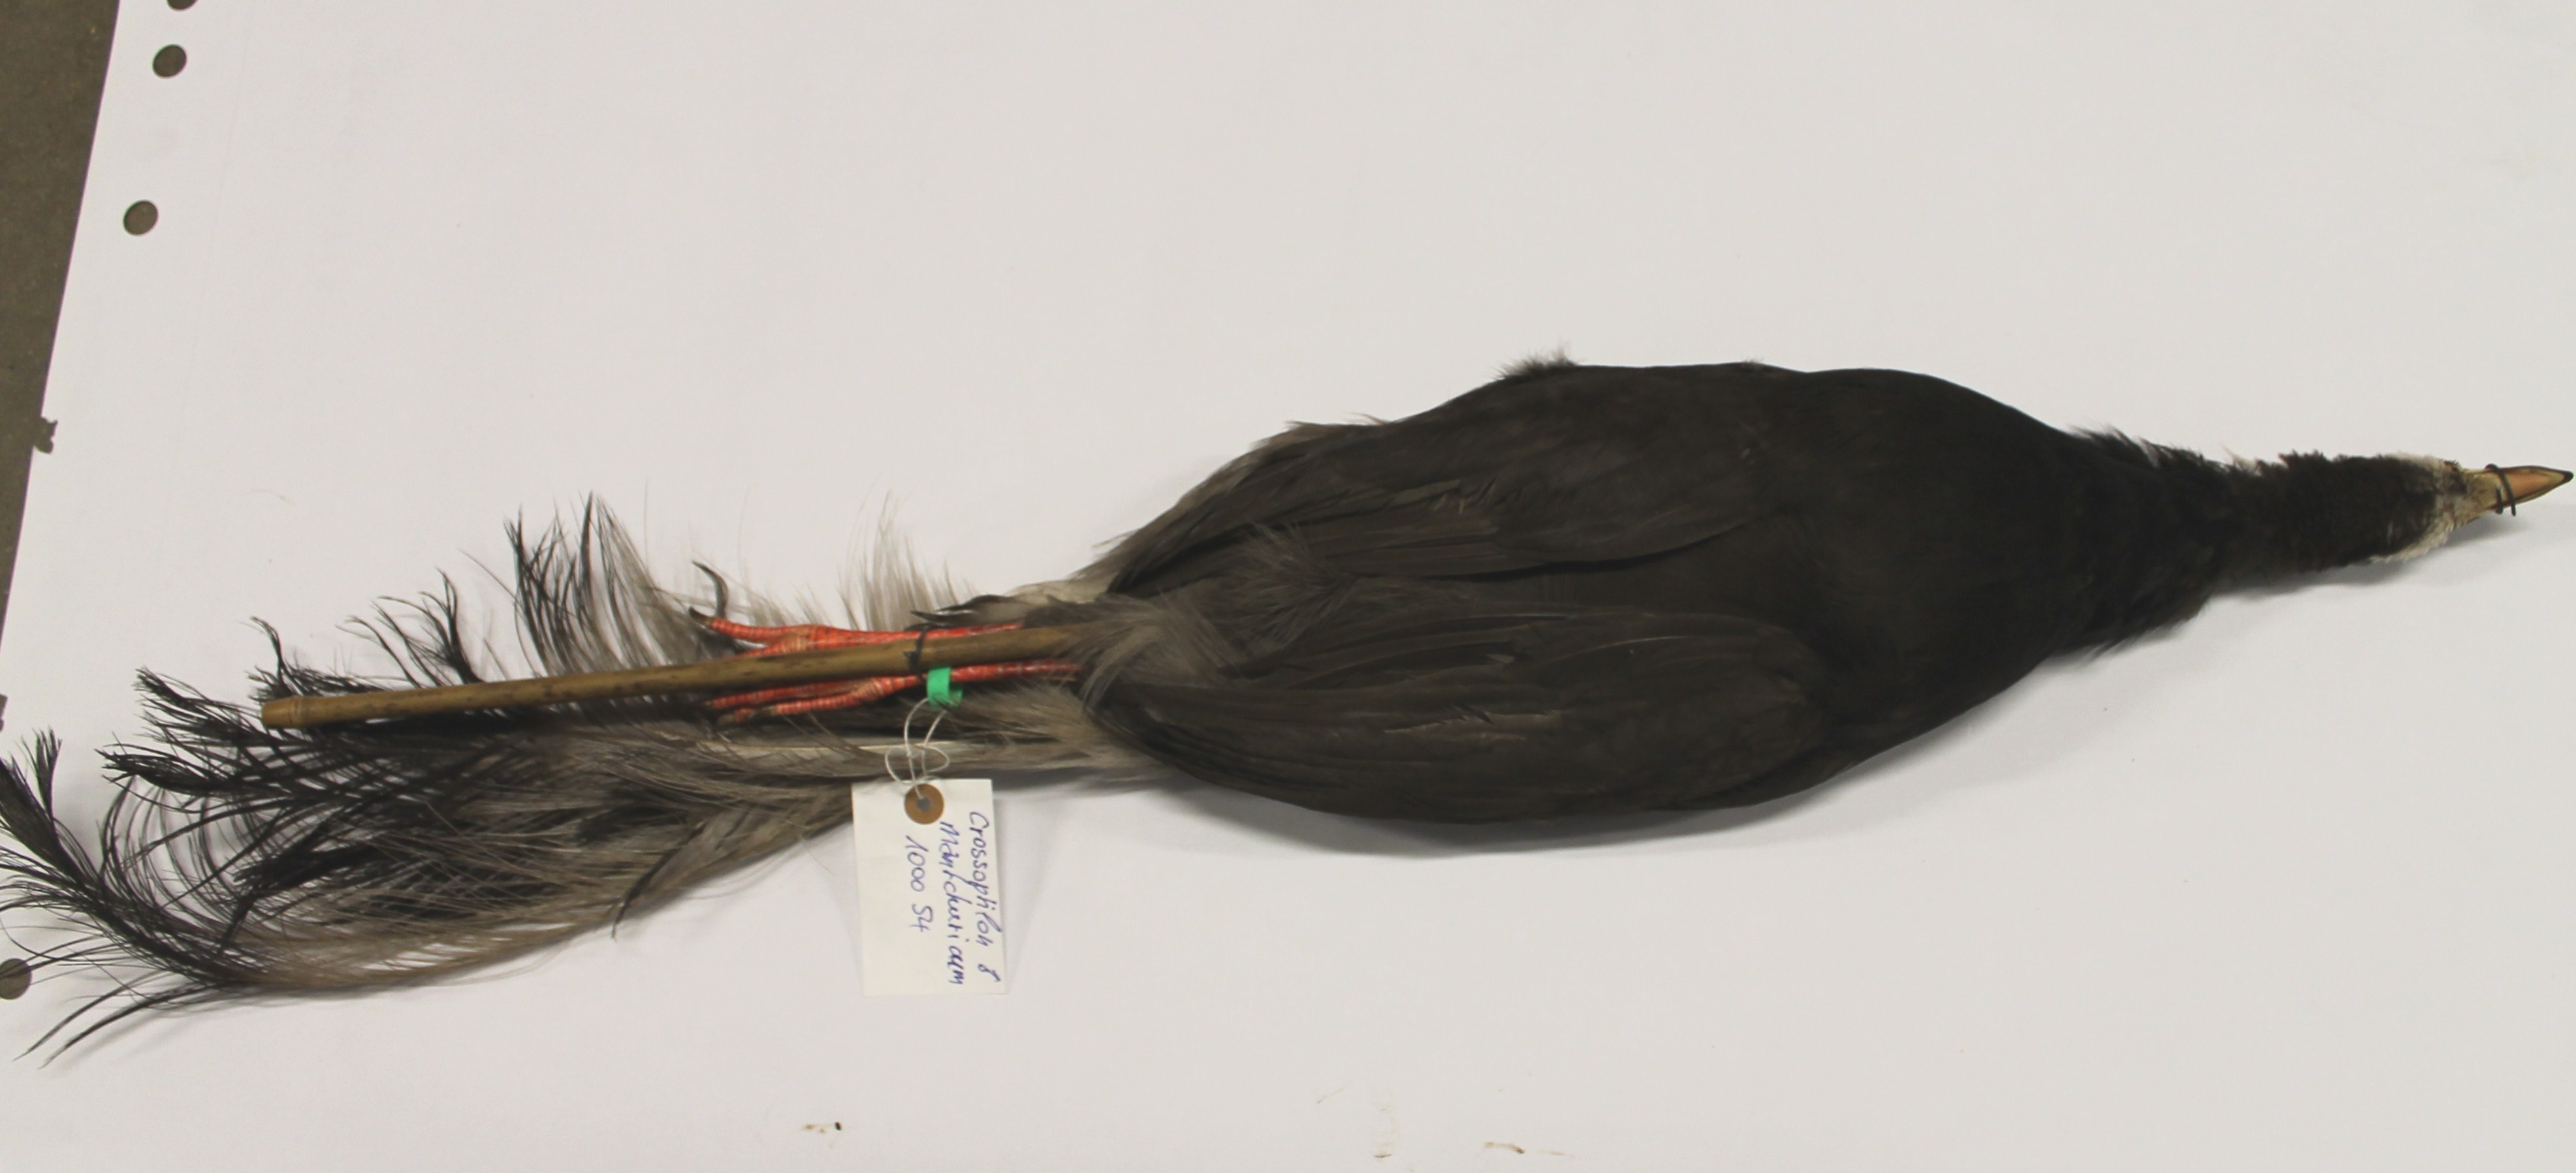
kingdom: Animalia
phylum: Chordata
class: Aves
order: Galliformes
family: Phasianidae
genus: Crossoptilon
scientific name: Crossoptilon mantchuricum
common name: Brown eared-pheasant
